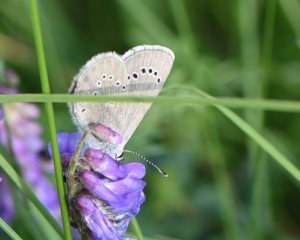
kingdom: Animalia
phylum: Arthropoda
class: Insecta
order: Lepidoptera
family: Lycaenidae
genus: Glaucopsyche
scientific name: Glaucopsyche lygdamus
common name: Silvery Blue
